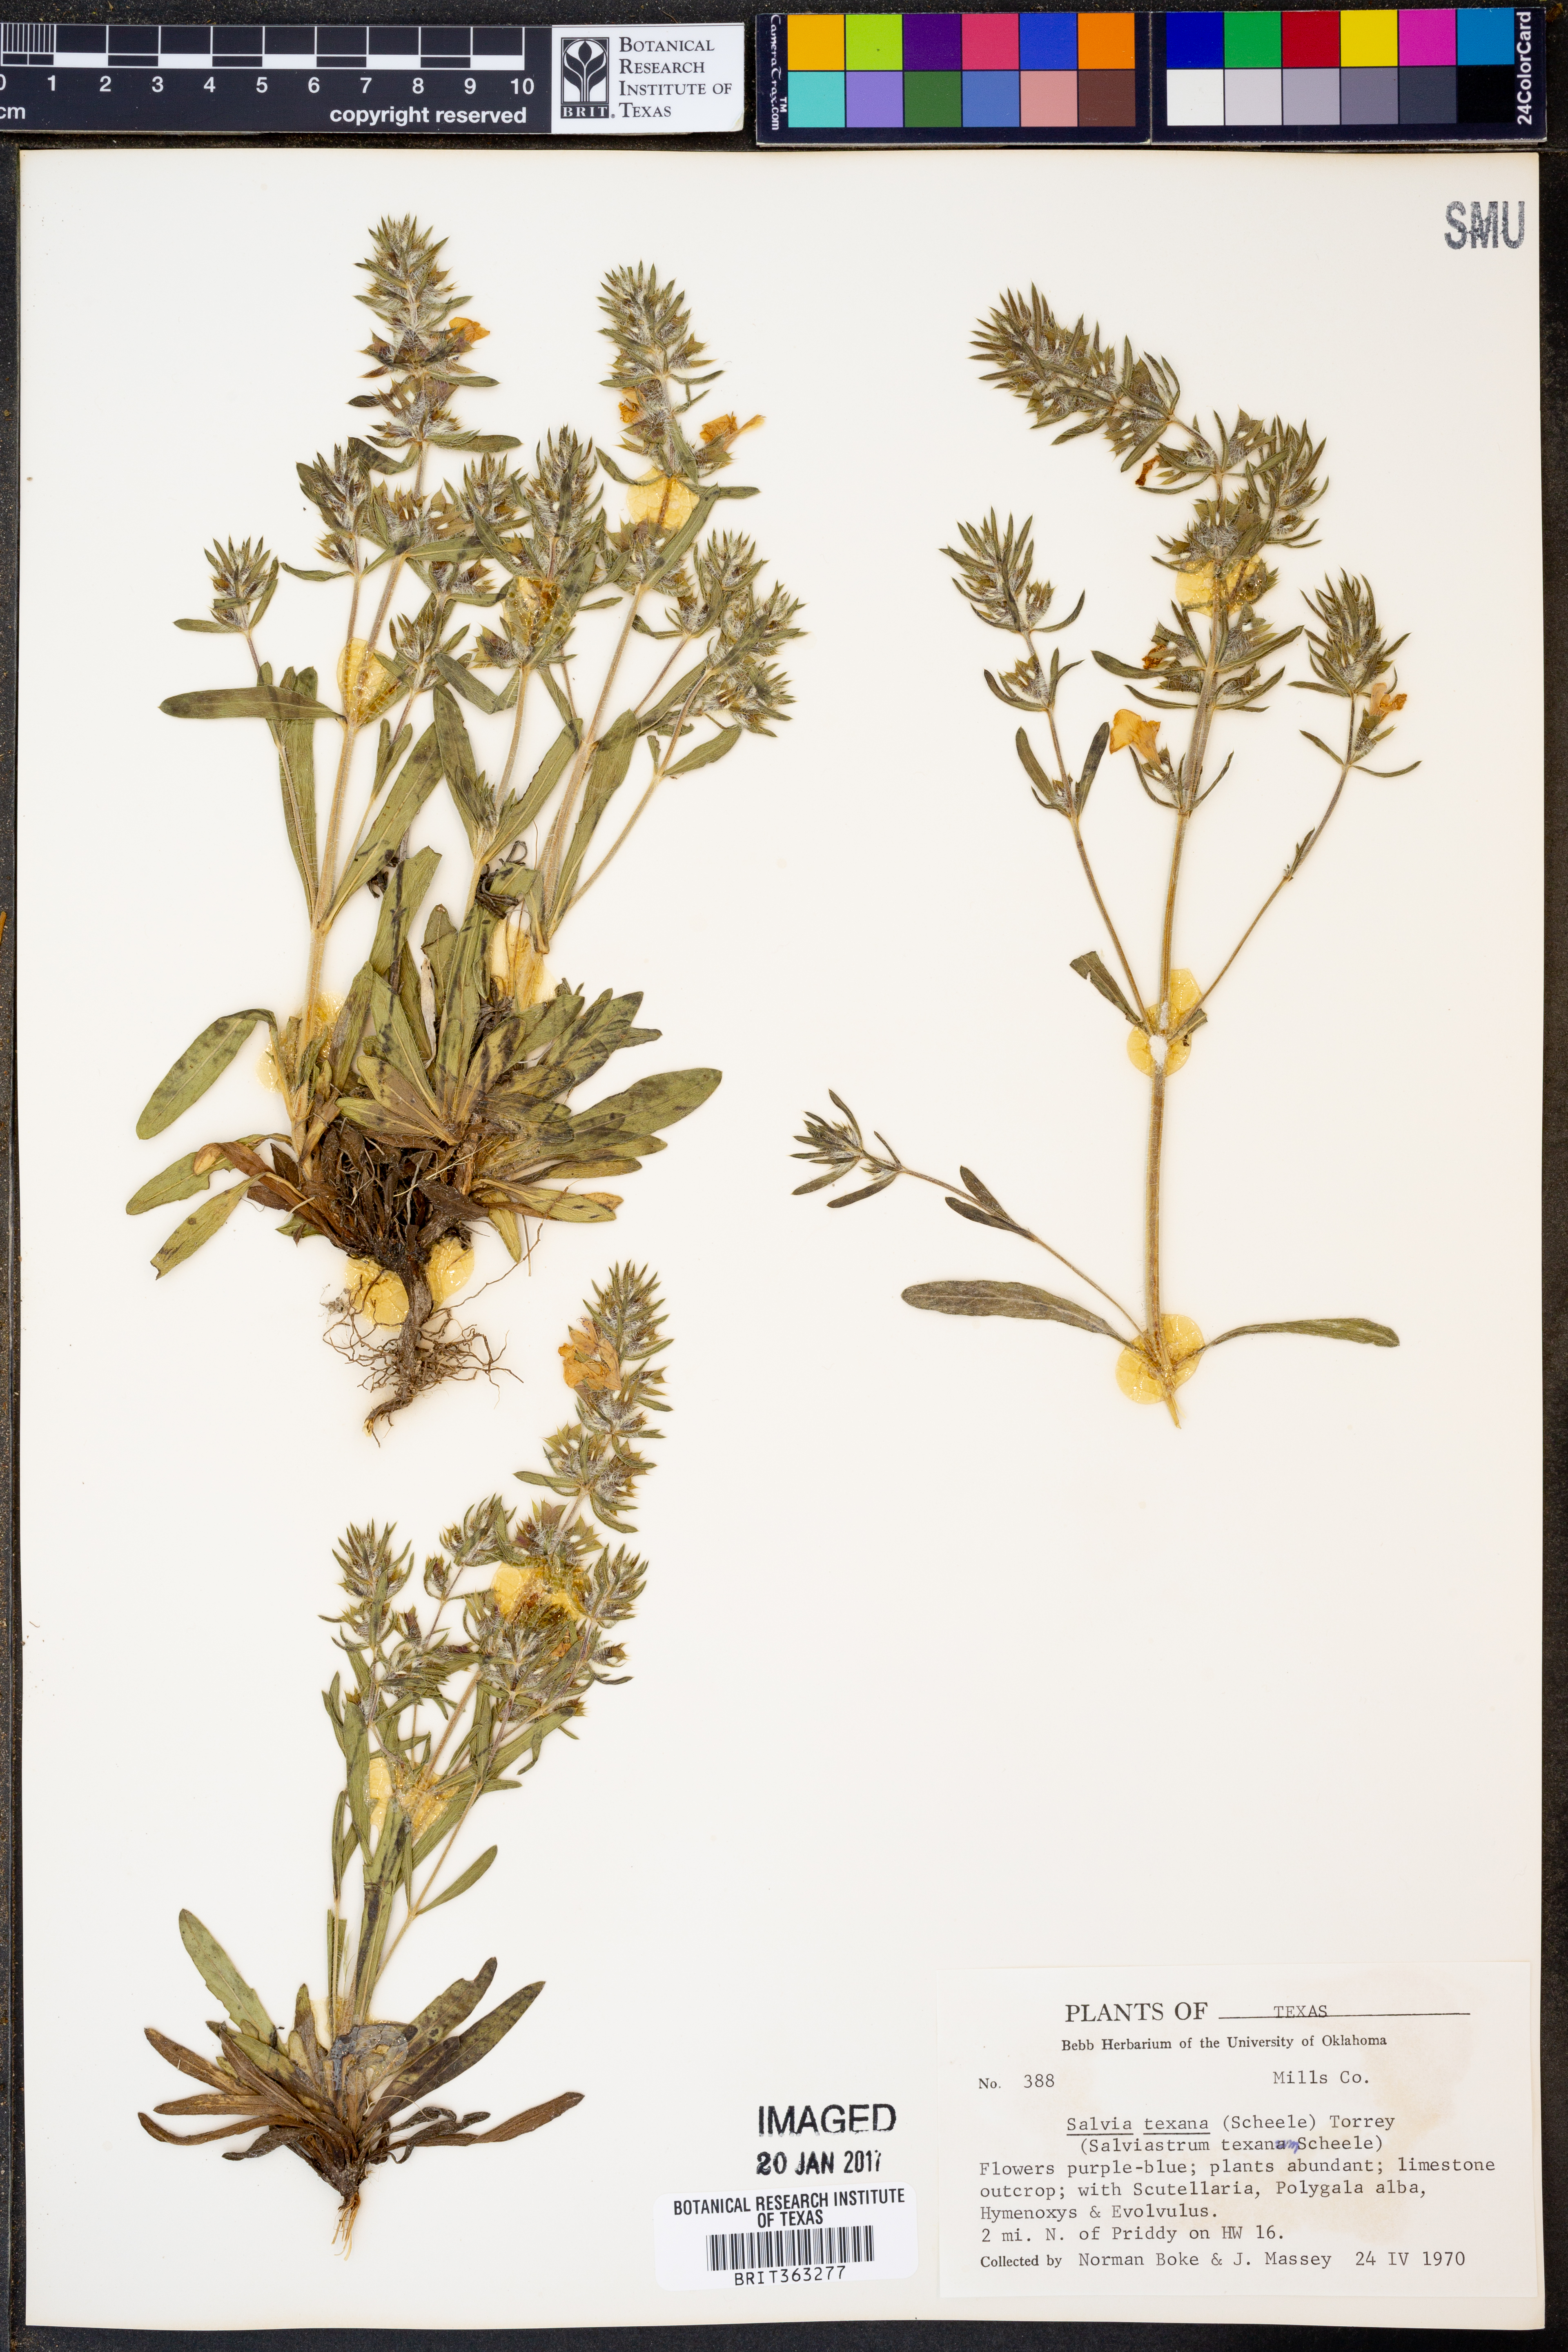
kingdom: Plantae
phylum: Tracheophyta
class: Magnoliopsida
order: Lamiales
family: Lamiaceae
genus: Salvia
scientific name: Salvia texana
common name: Texas sage
